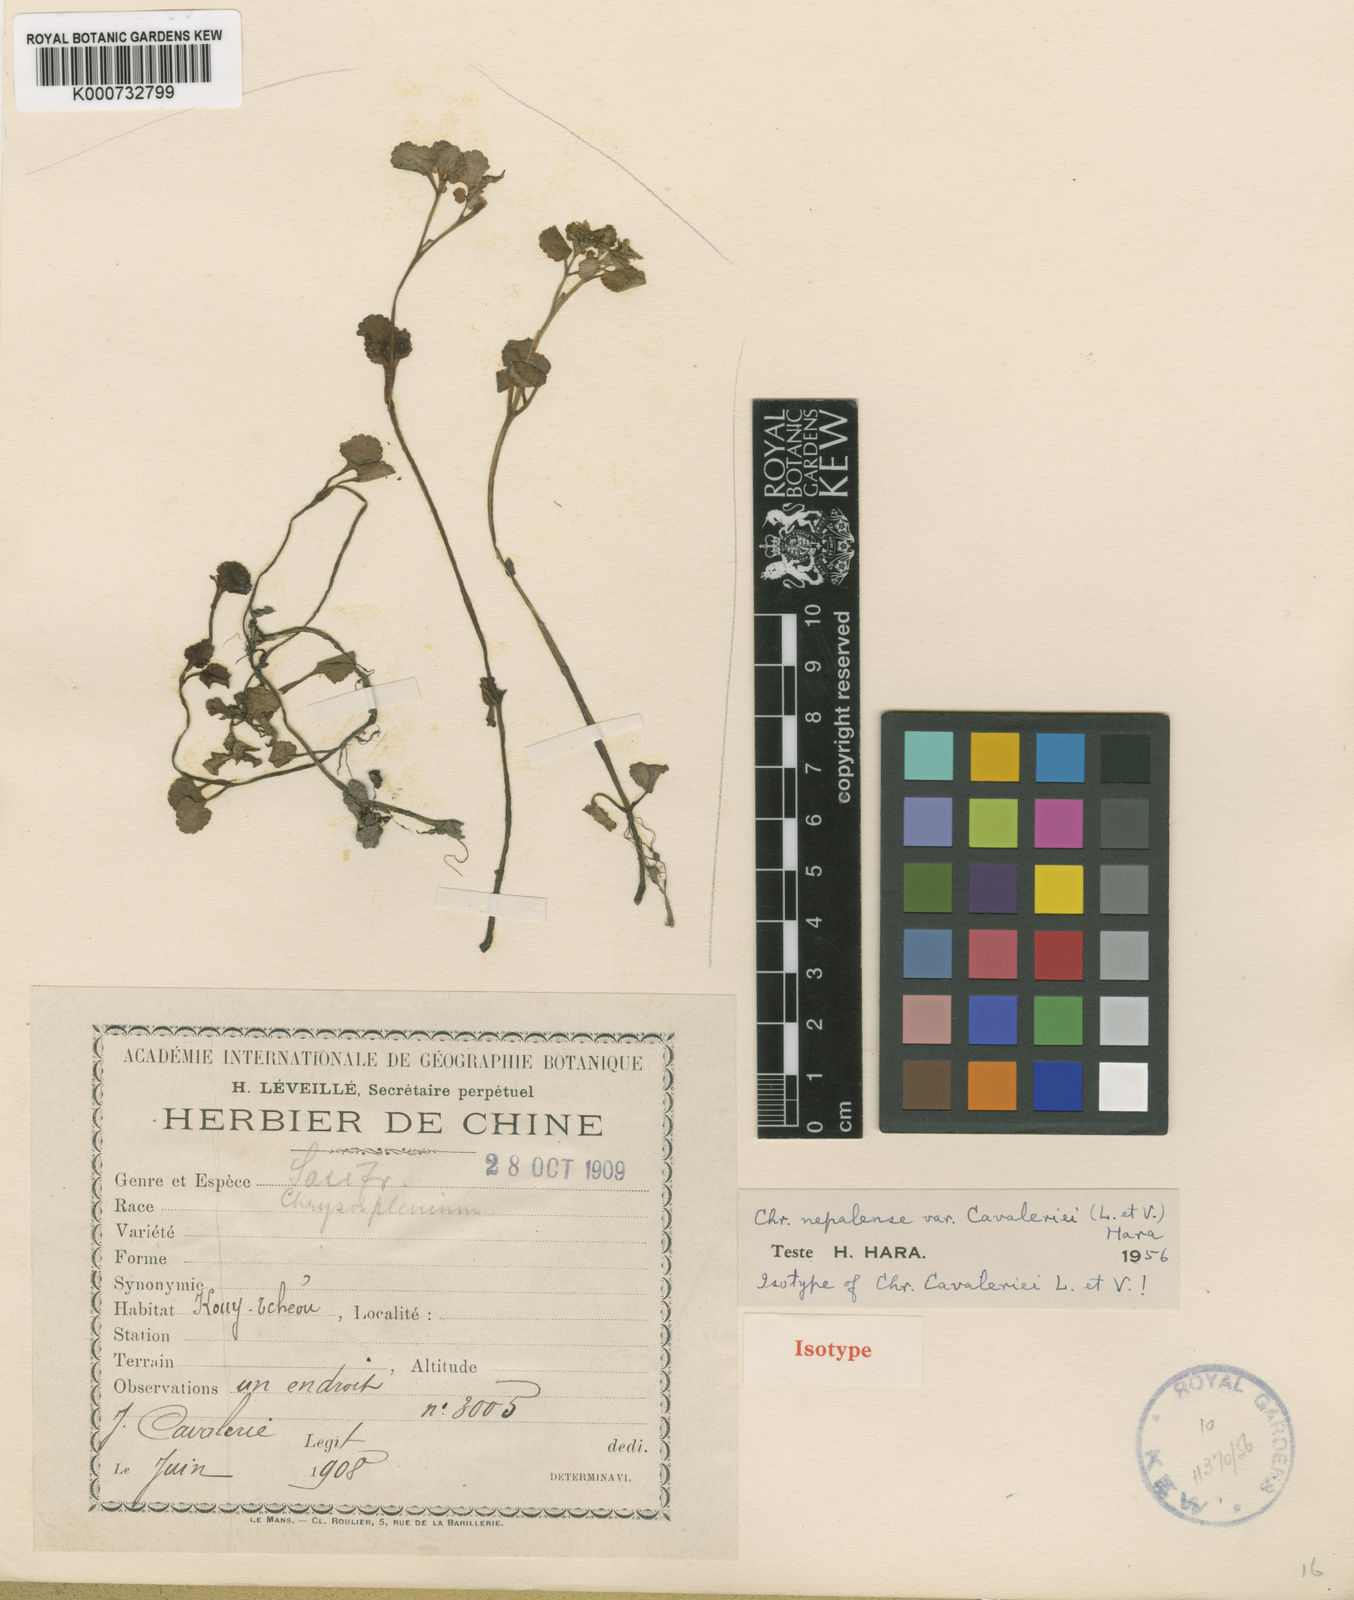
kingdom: Plantae
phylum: Tracheophyta
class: Magnoliopsida
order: Saxifragales
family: Saxifragaceae
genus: Chrysosplenium
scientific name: Chrysosplenium nepalense
